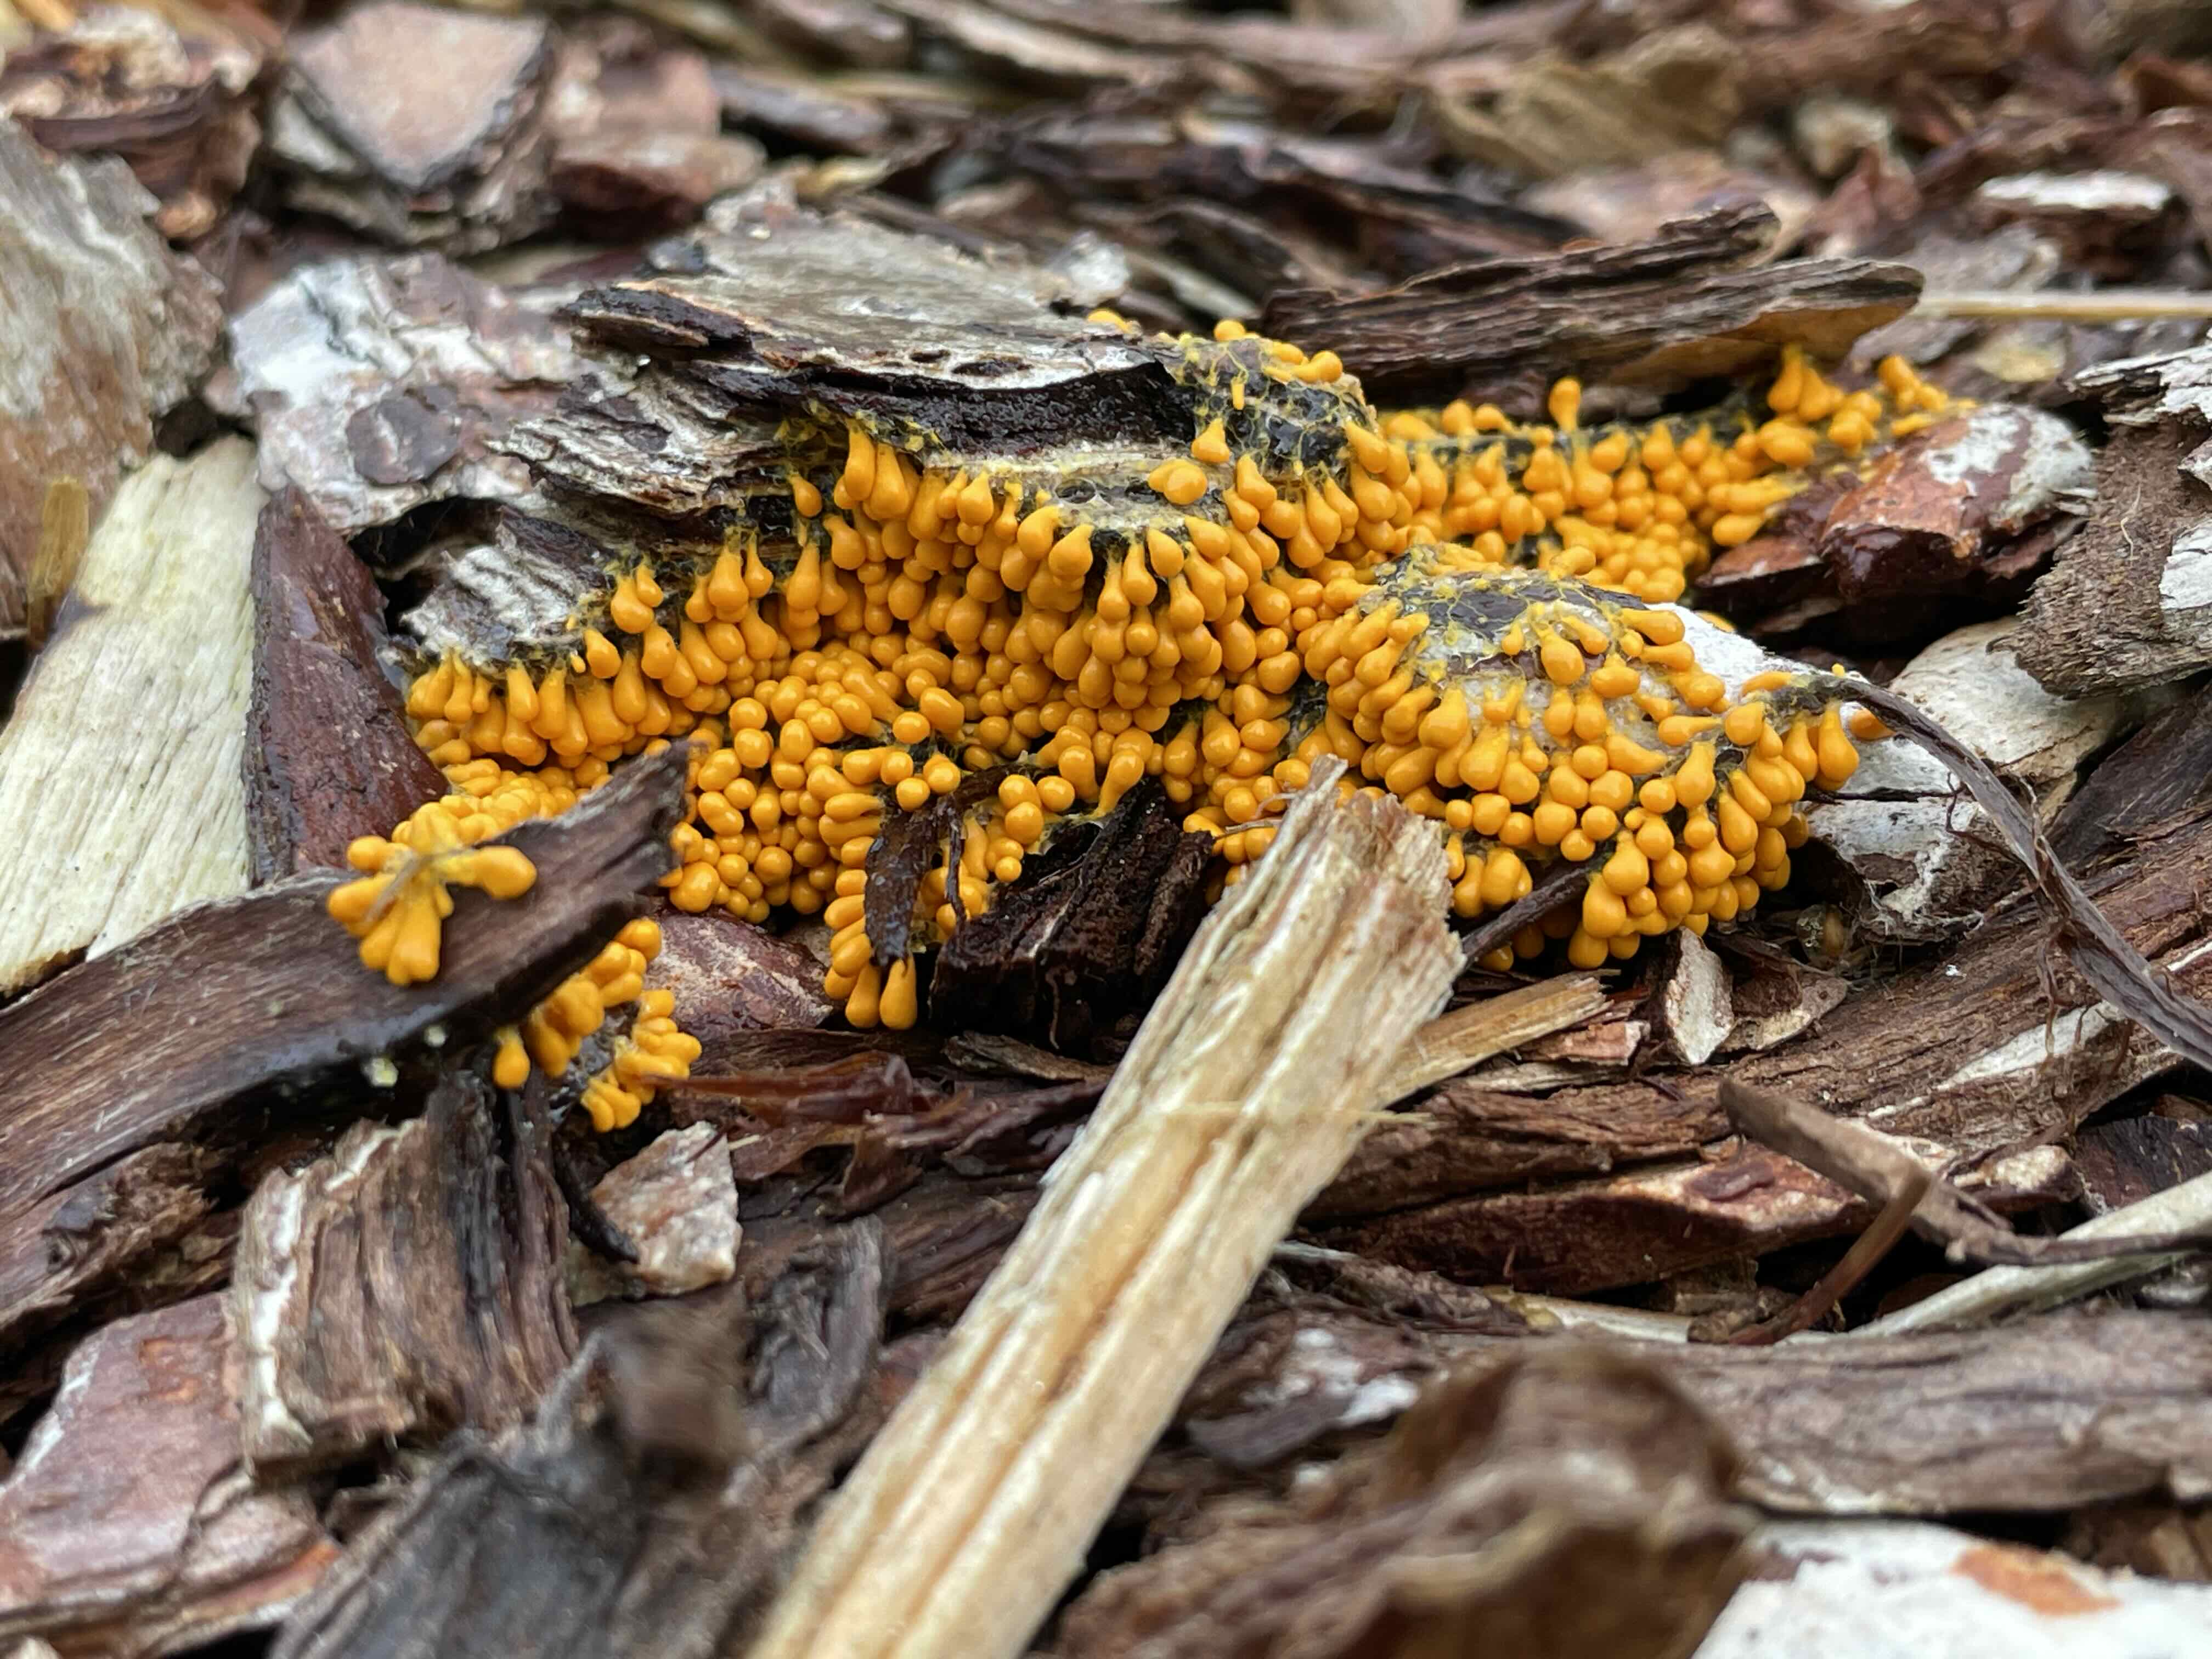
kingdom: Protozoa
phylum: Mycetozoa
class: Myxomycetes
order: Physarales
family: Physaraceae
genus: Leocarpus
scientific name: Leocarpus fragilis
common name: poleret glatfrø
